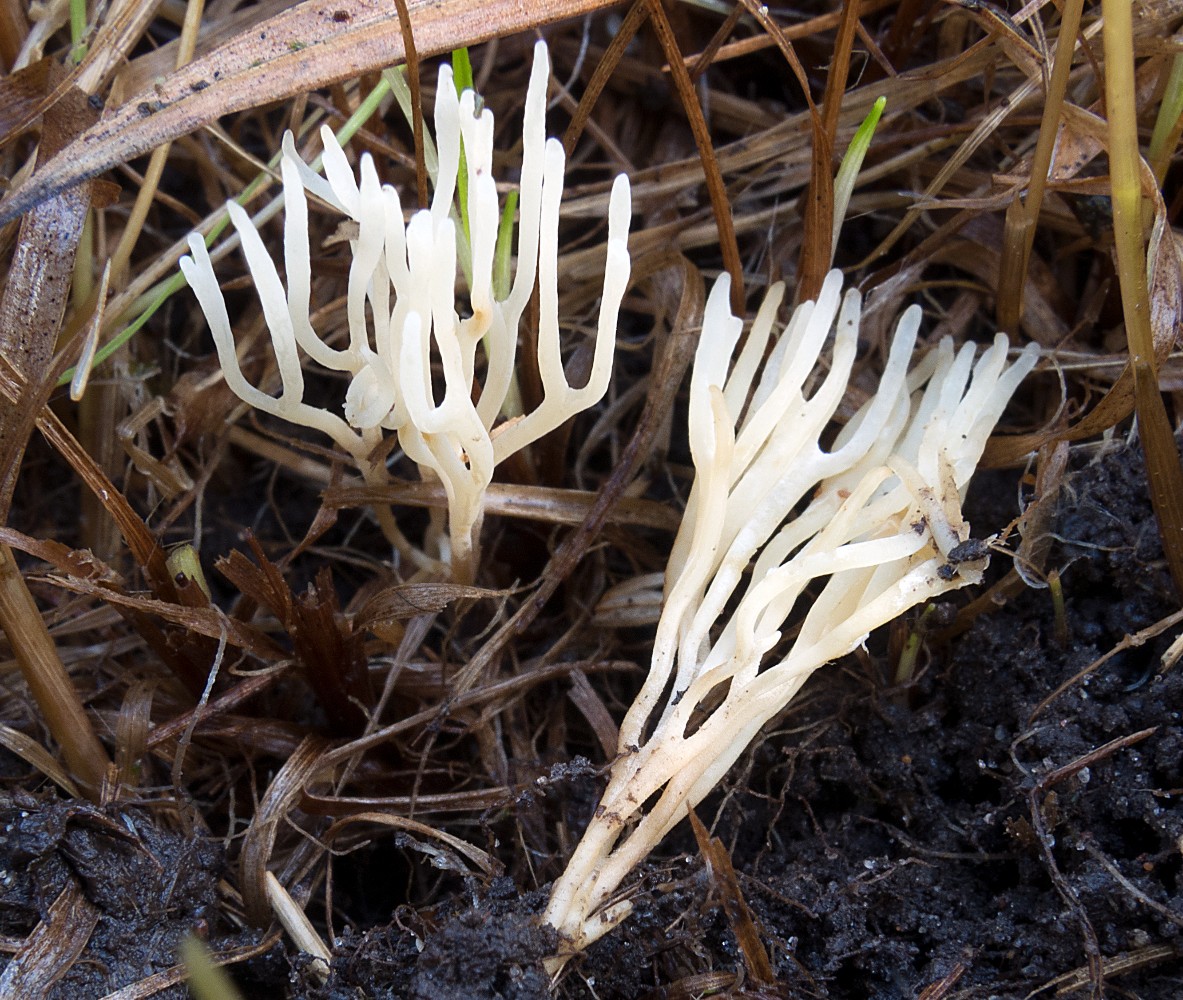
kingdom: Fungi
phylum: Basidiomycota
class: Agaricomycetes
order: Agaricales
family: Clavariaceae
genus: Ramariopsis
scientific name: Ramariopsis tenuicula
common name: spinkel køllesvamp
